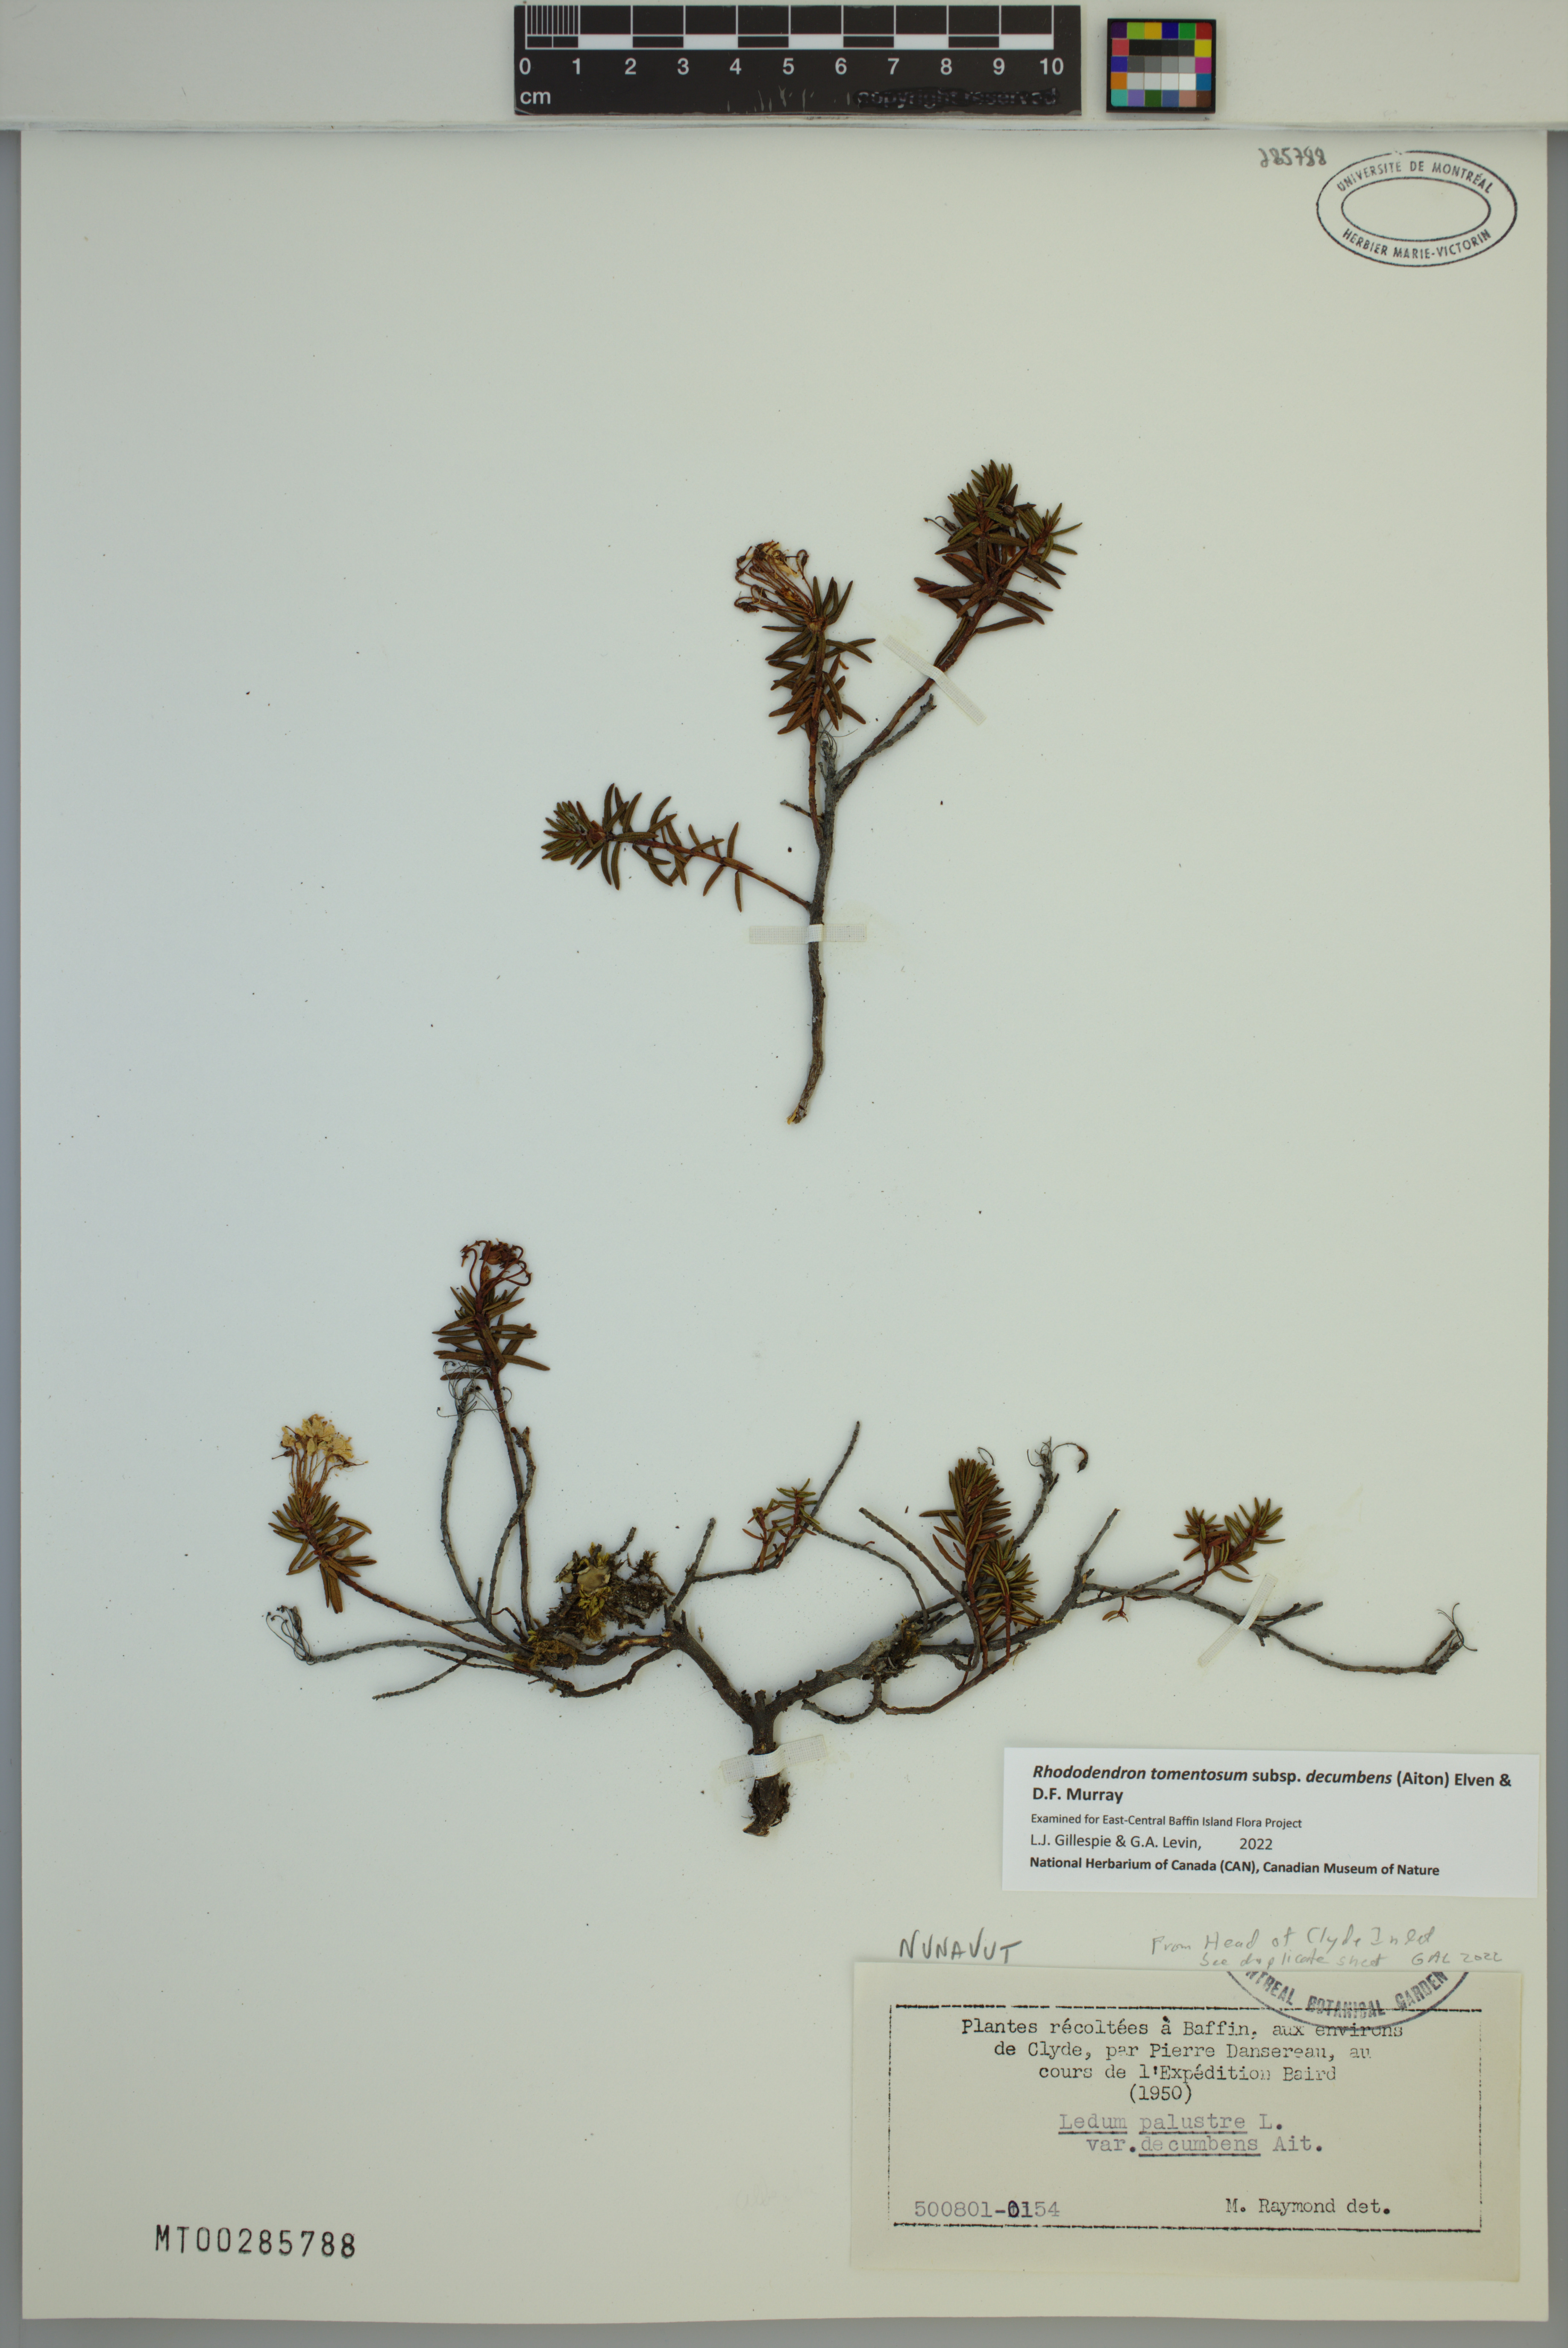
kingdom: Plantae
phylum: Tracheophyta
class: Magnoliopsida
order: Ericales
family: Ericaceae
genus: Rhododendron
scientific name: Rhododendron tomentosum
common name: Marsh labrador tea
